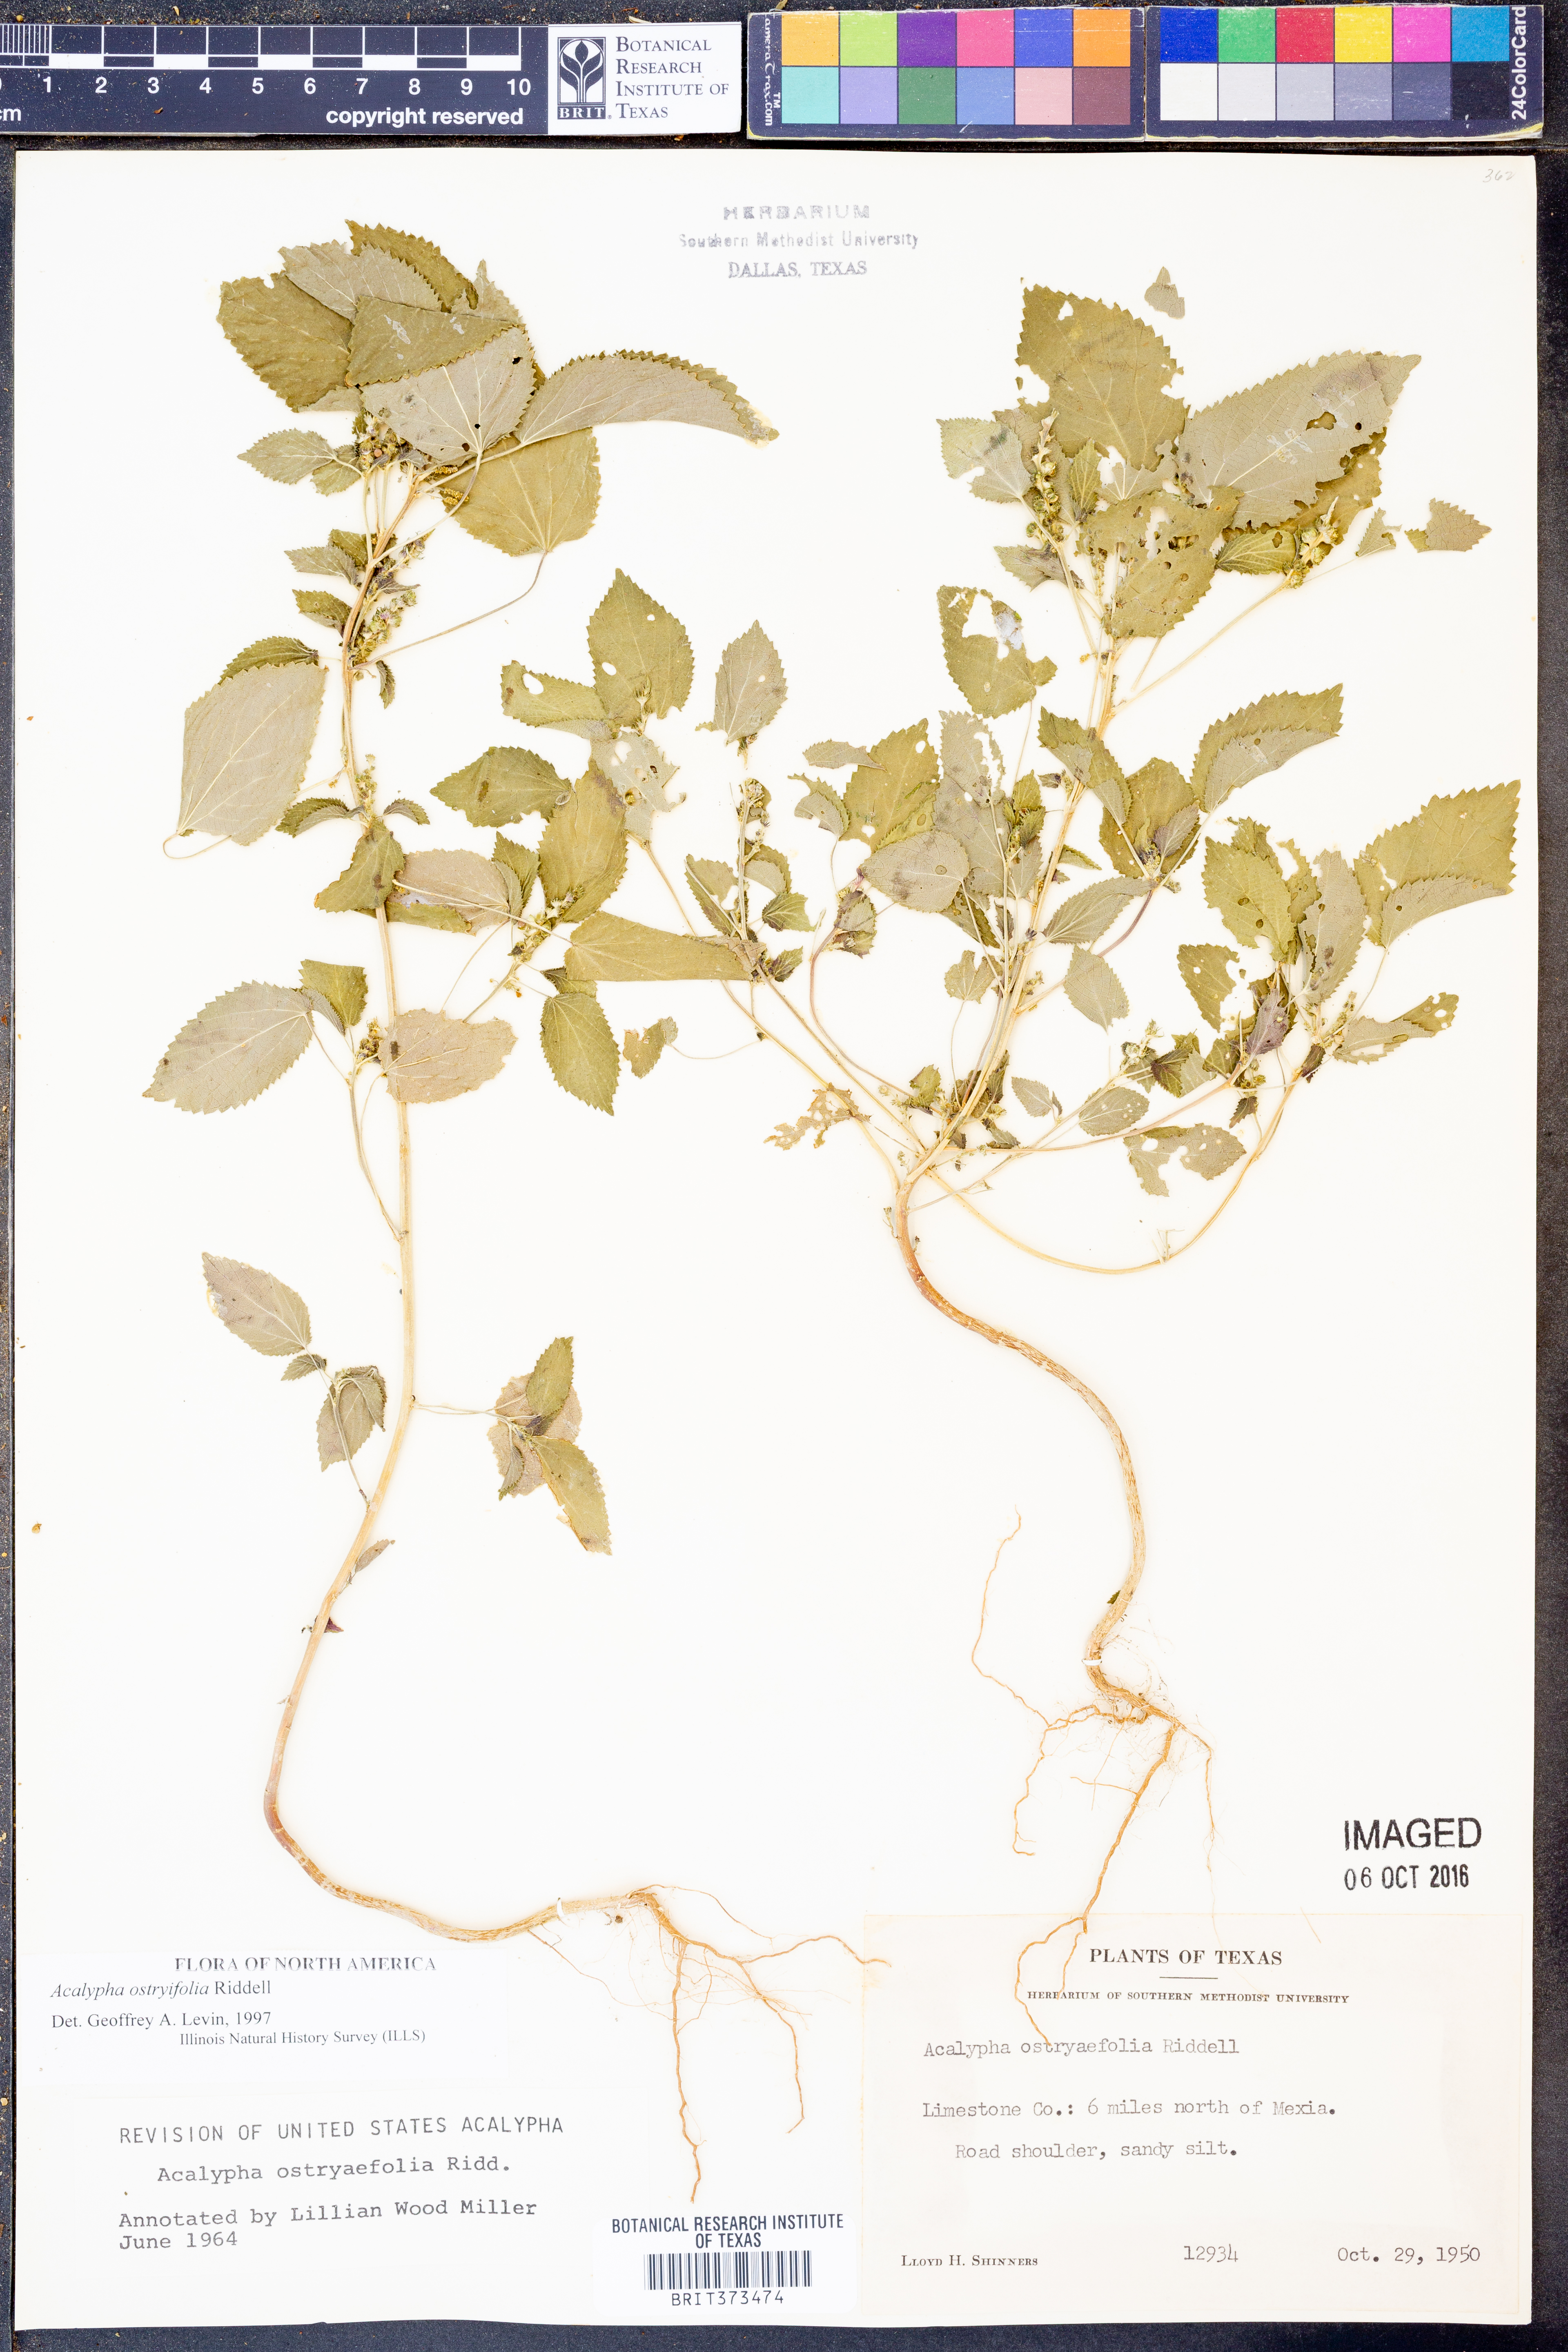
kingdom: Plantae
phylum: Tracheophyta
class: Magnoliopsida
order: Malpighiales
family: Euphorbiaceae
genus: Acalypha
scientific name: Acalypha persimilis
